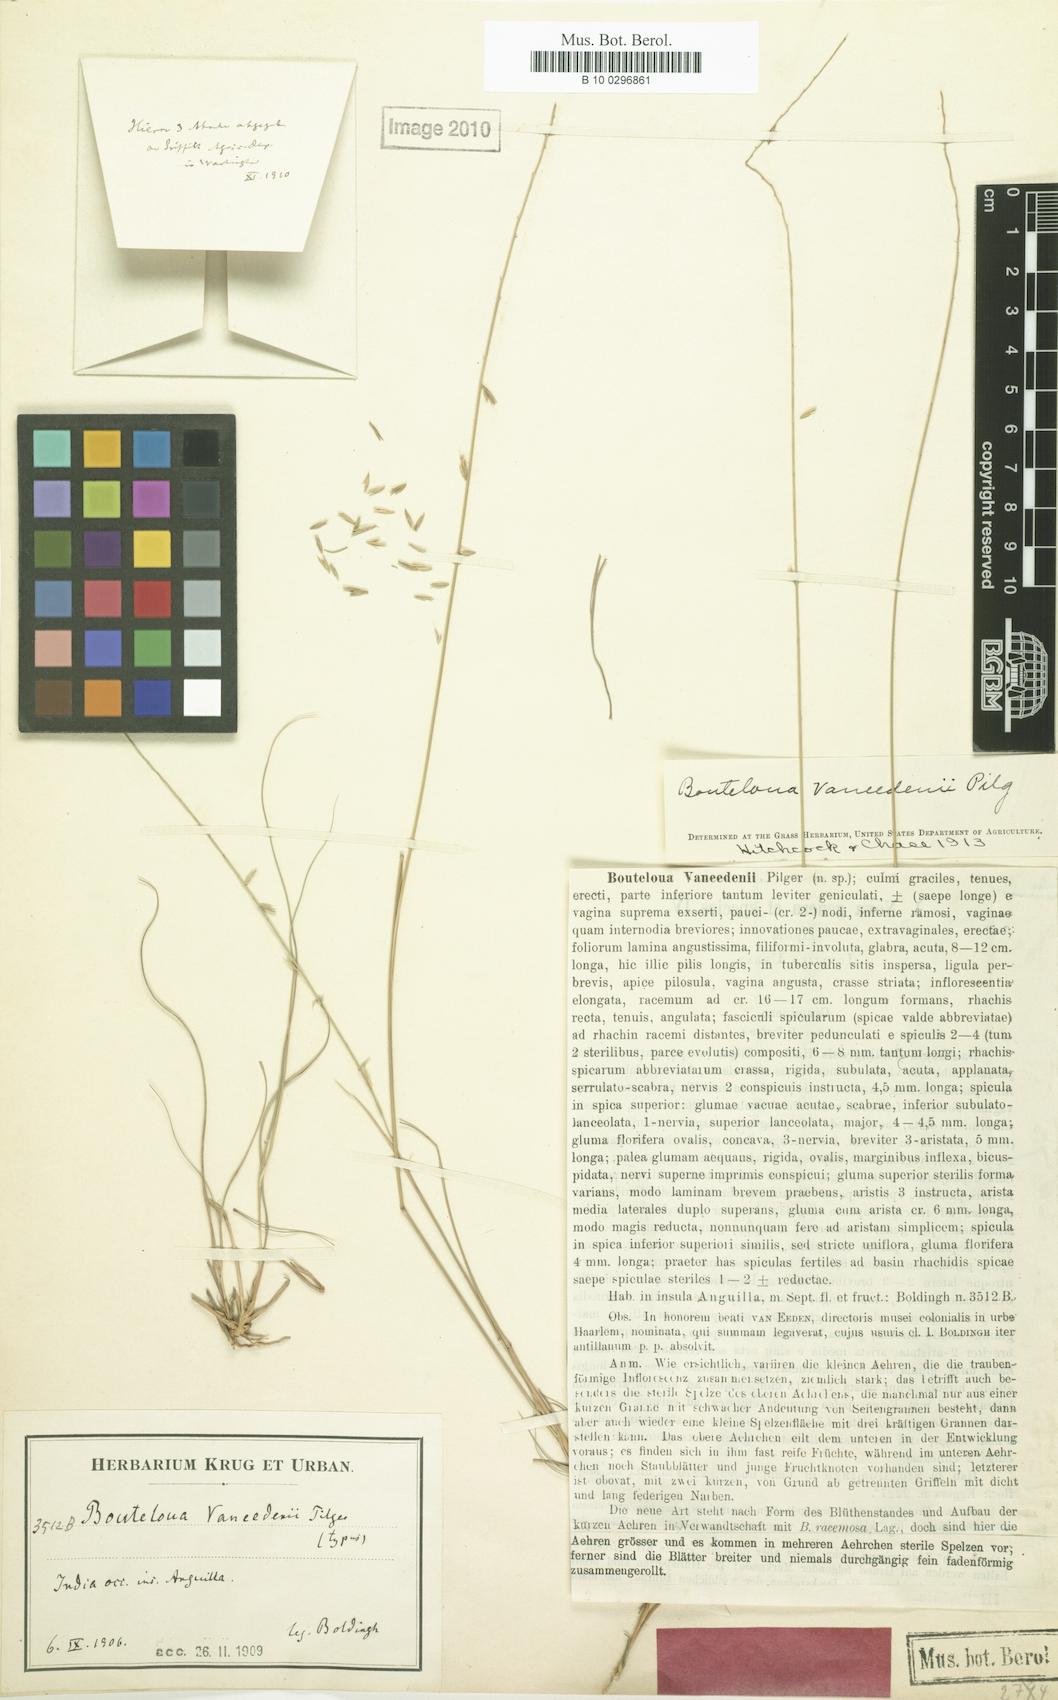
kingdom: Plantae
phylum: Tracheophyta
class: Liliopsida
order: Poales
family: Poaceae
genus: Bouteloua
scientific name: Bouteloua vaneedenii
